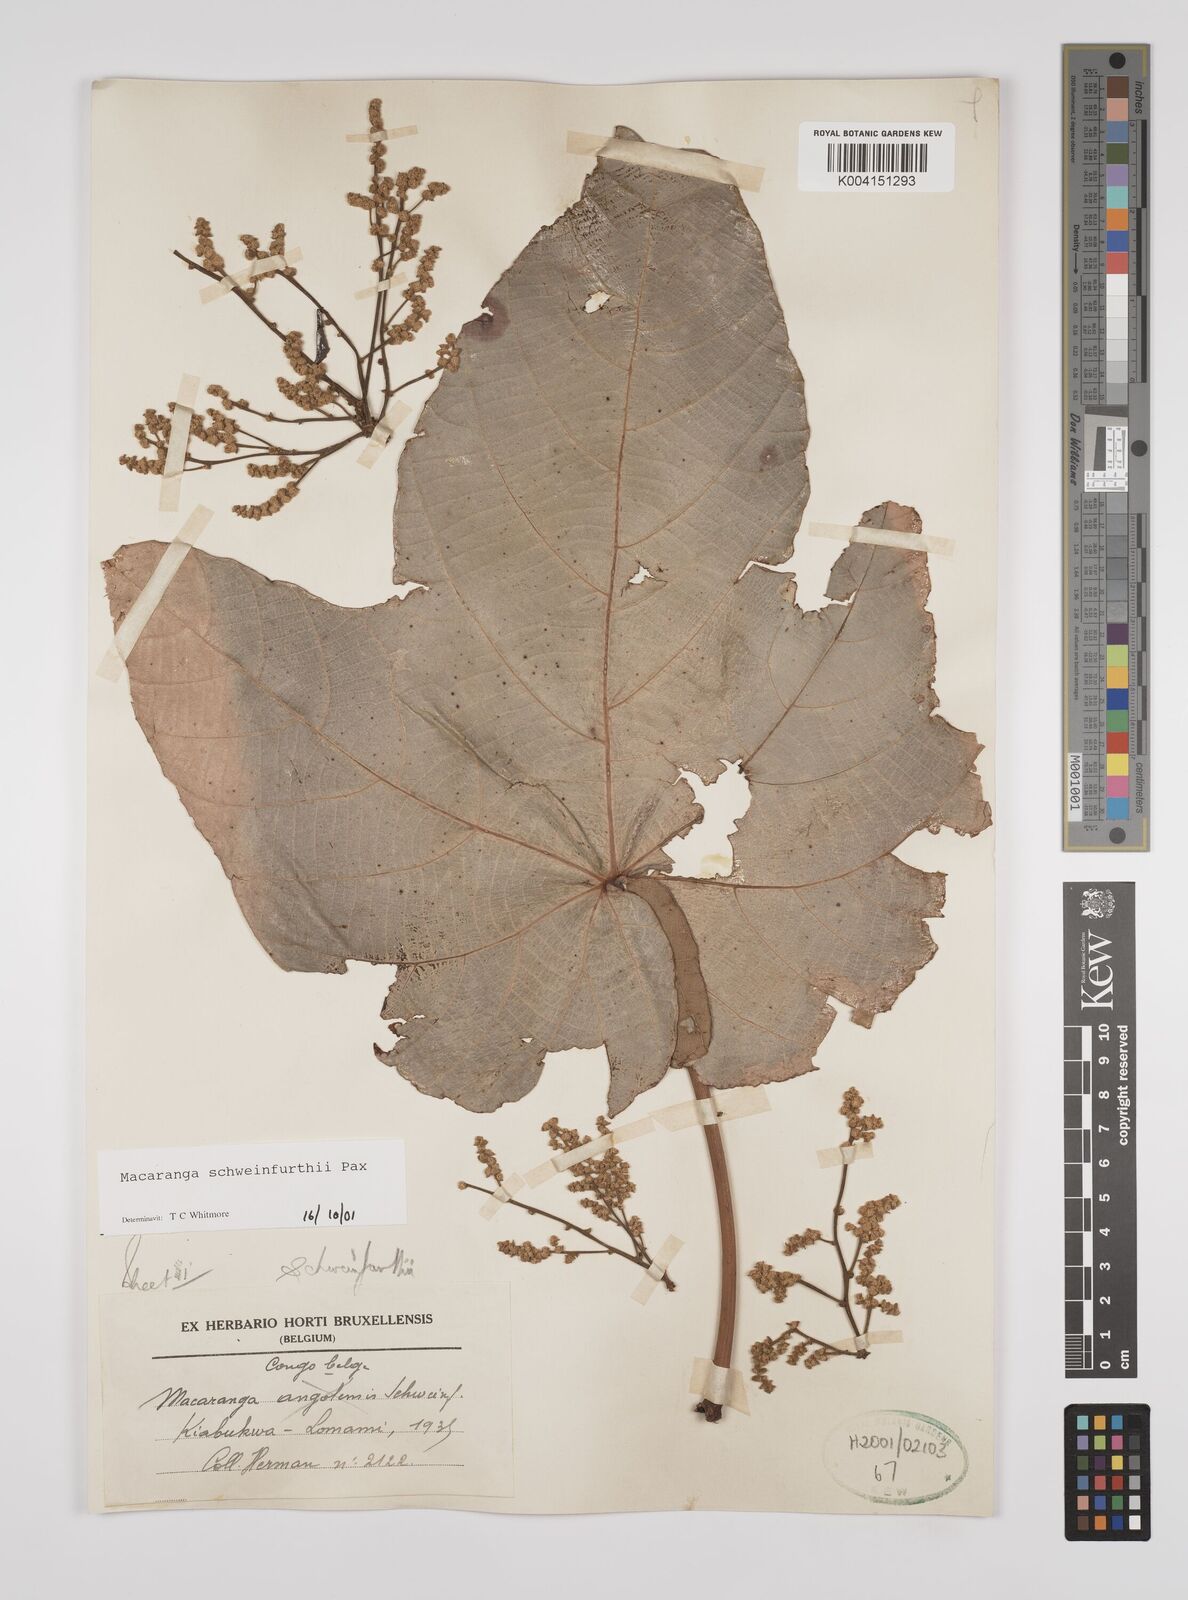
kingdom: Plantae
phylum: Tracheophyta
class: Magnoliopsida
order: Malpighiales
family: Euphorbiaceae
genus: Macaranga
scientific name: Macaranga schweinfurthii
